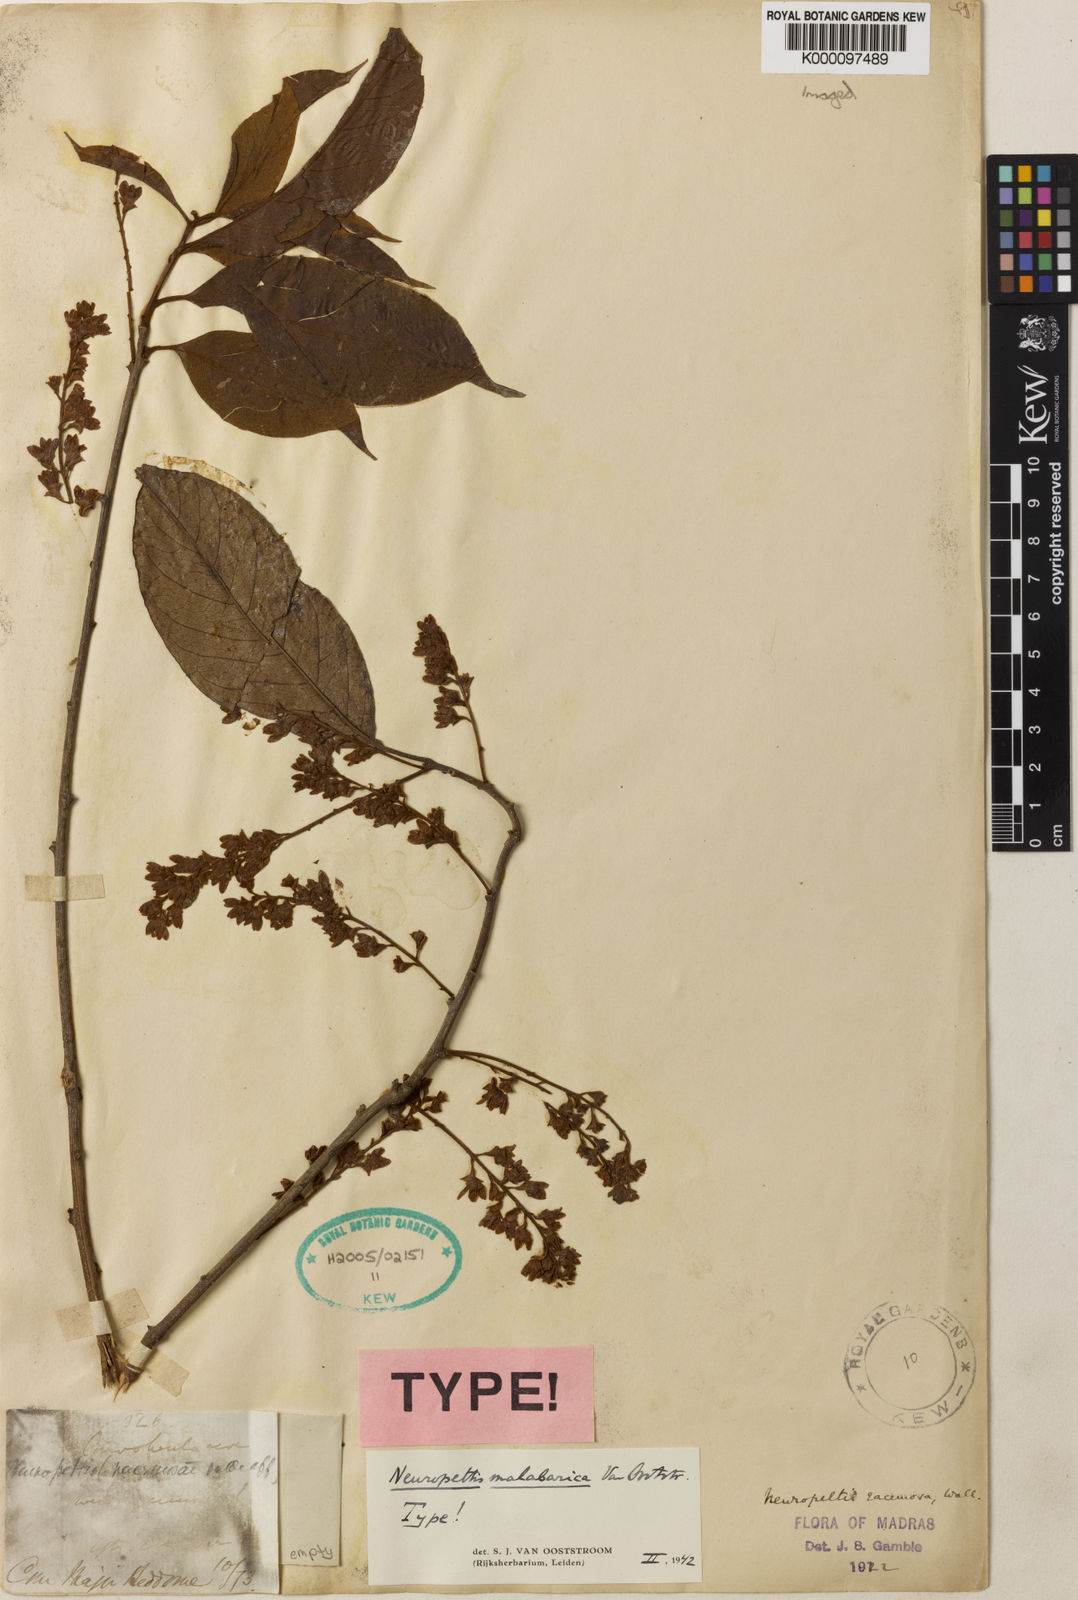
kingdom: Plantae
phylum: Tracheophyta
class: Magnoliopsida
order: Solanales
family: Convolvulaceae
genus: Neuropeltis
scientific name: Neuropeltis racemosa
